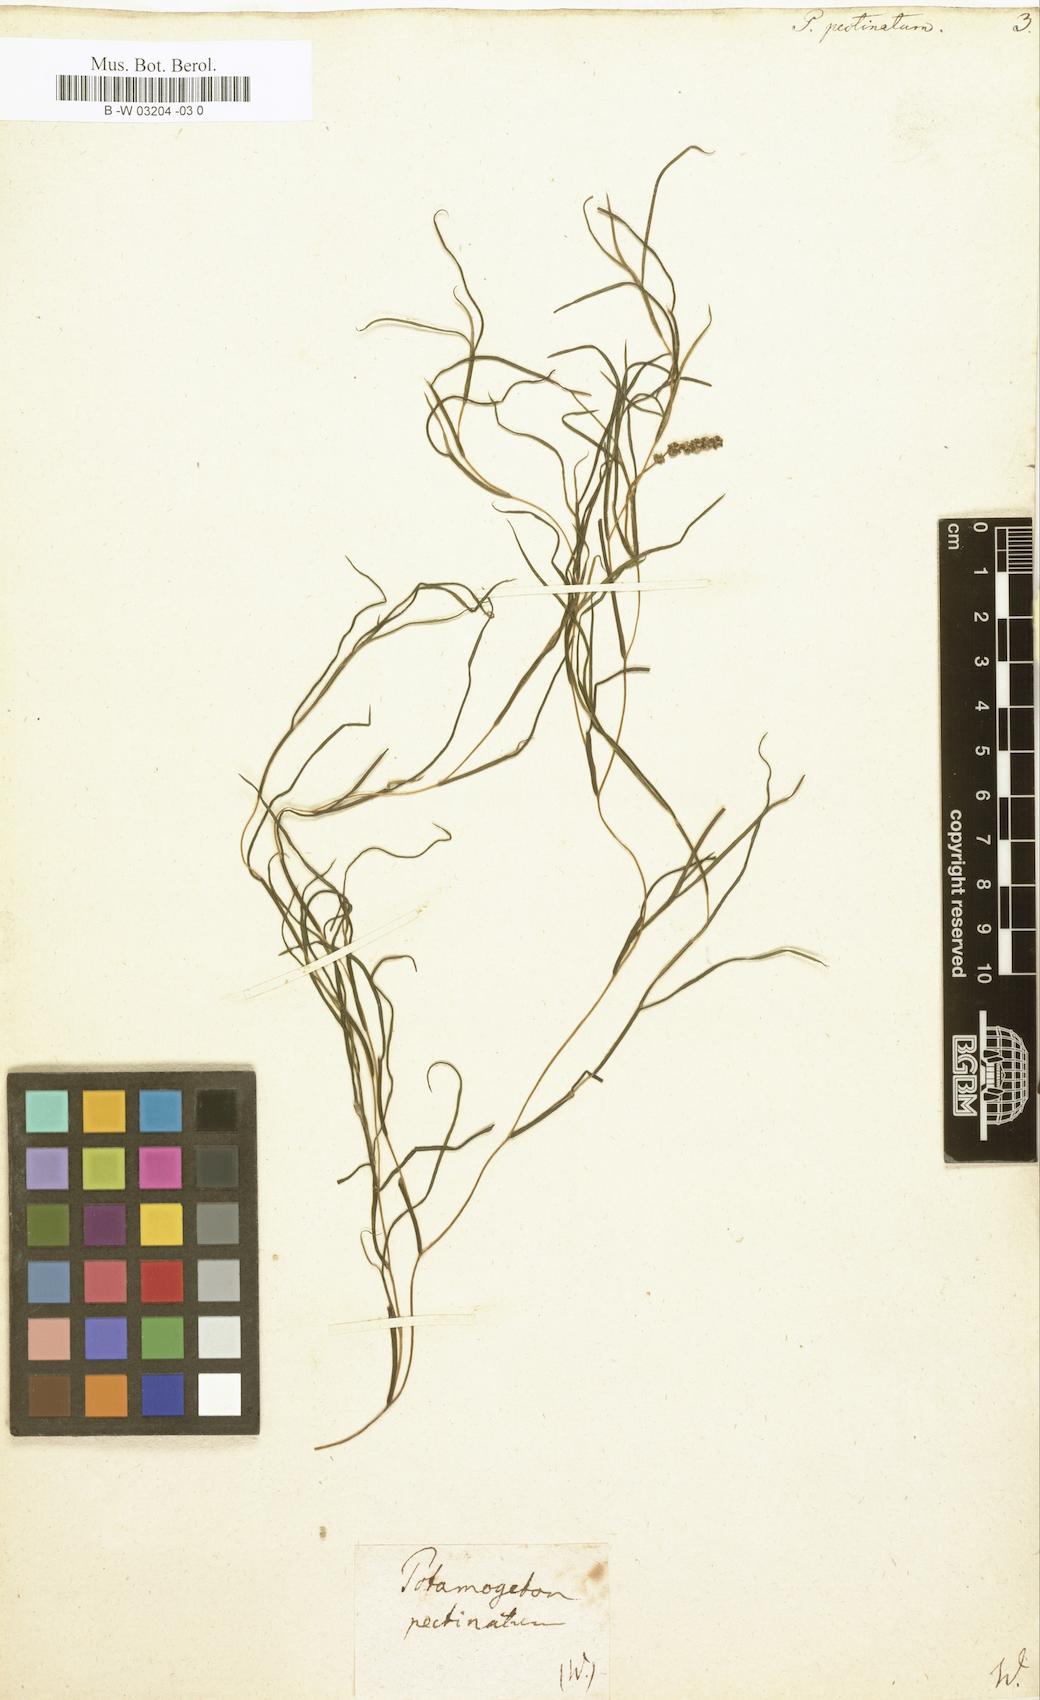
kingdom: Plantae
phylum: Tracheophyta
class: Liliopsida
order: Alismatales
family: Potamogetonaceae
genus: Stuckenia
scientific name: Stuckenia pectinata
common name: Sago pondweed
